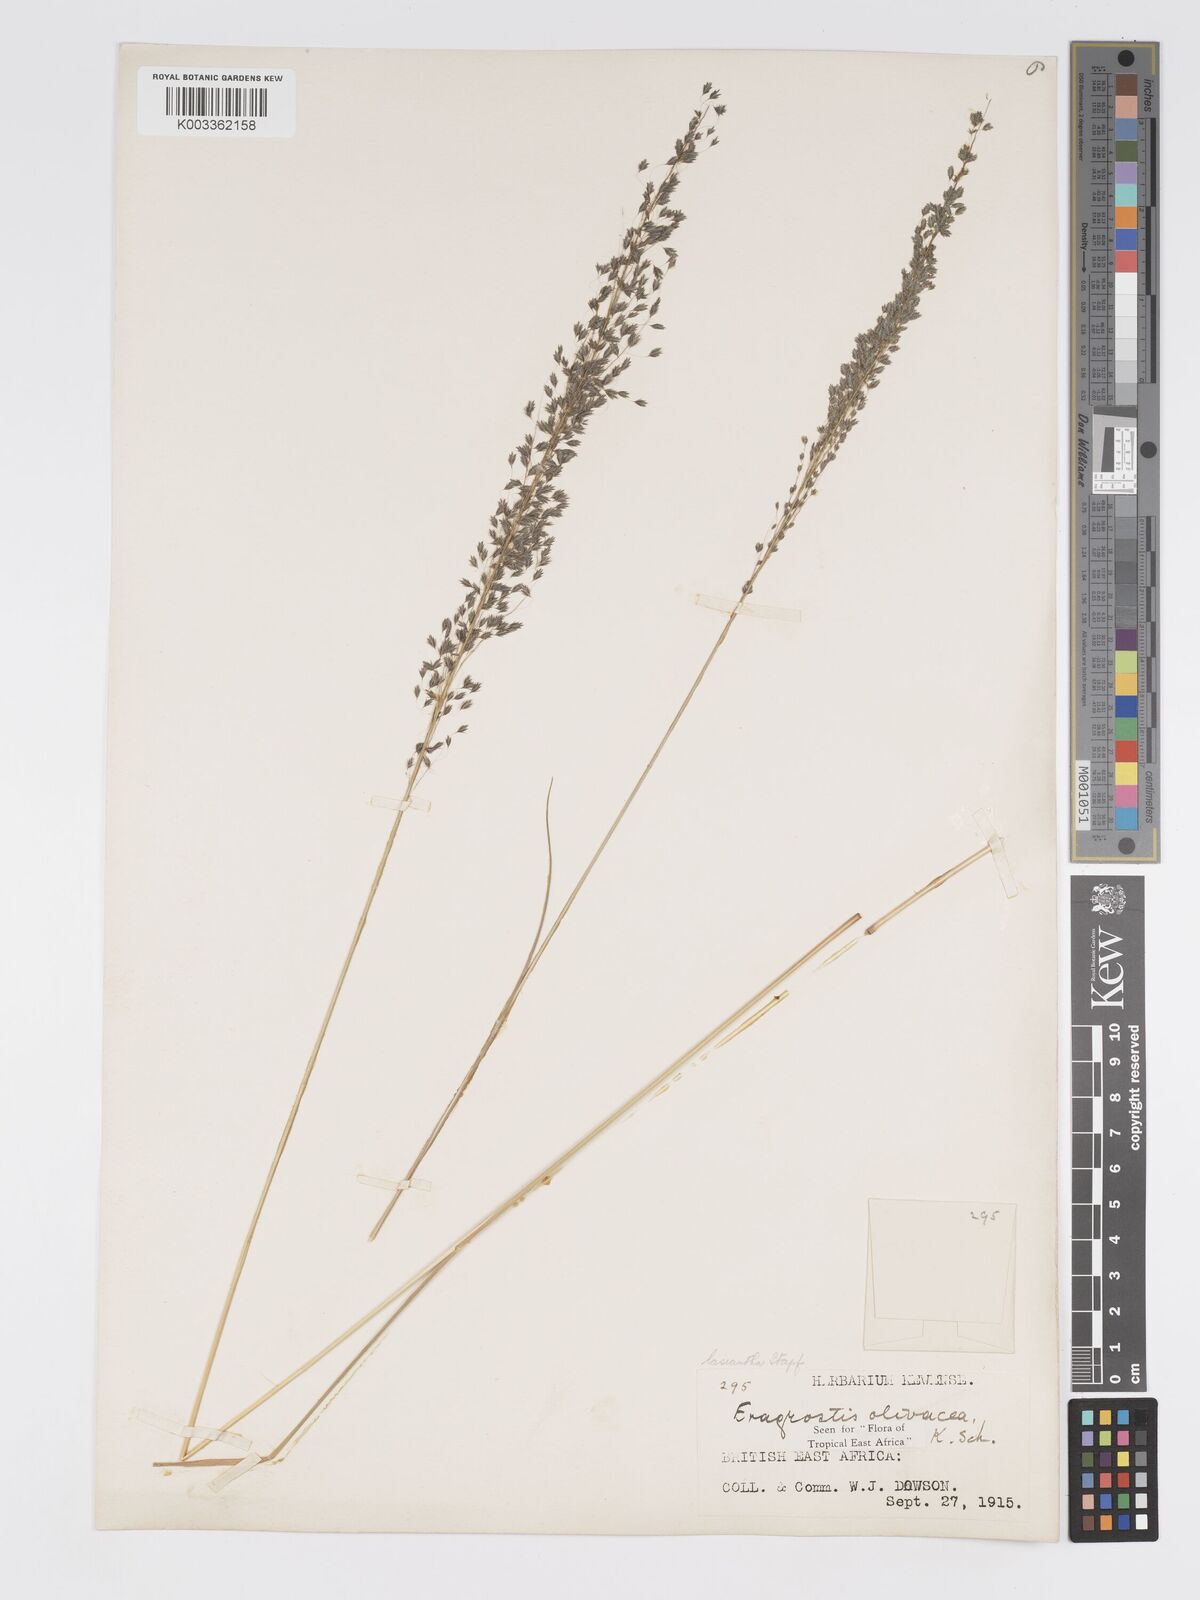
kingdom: Plantae
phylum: Tracheophyta
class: Liliopsida
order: Poales
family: Poaceae
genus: Eragrostis
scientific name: Eragrostis olivacea
